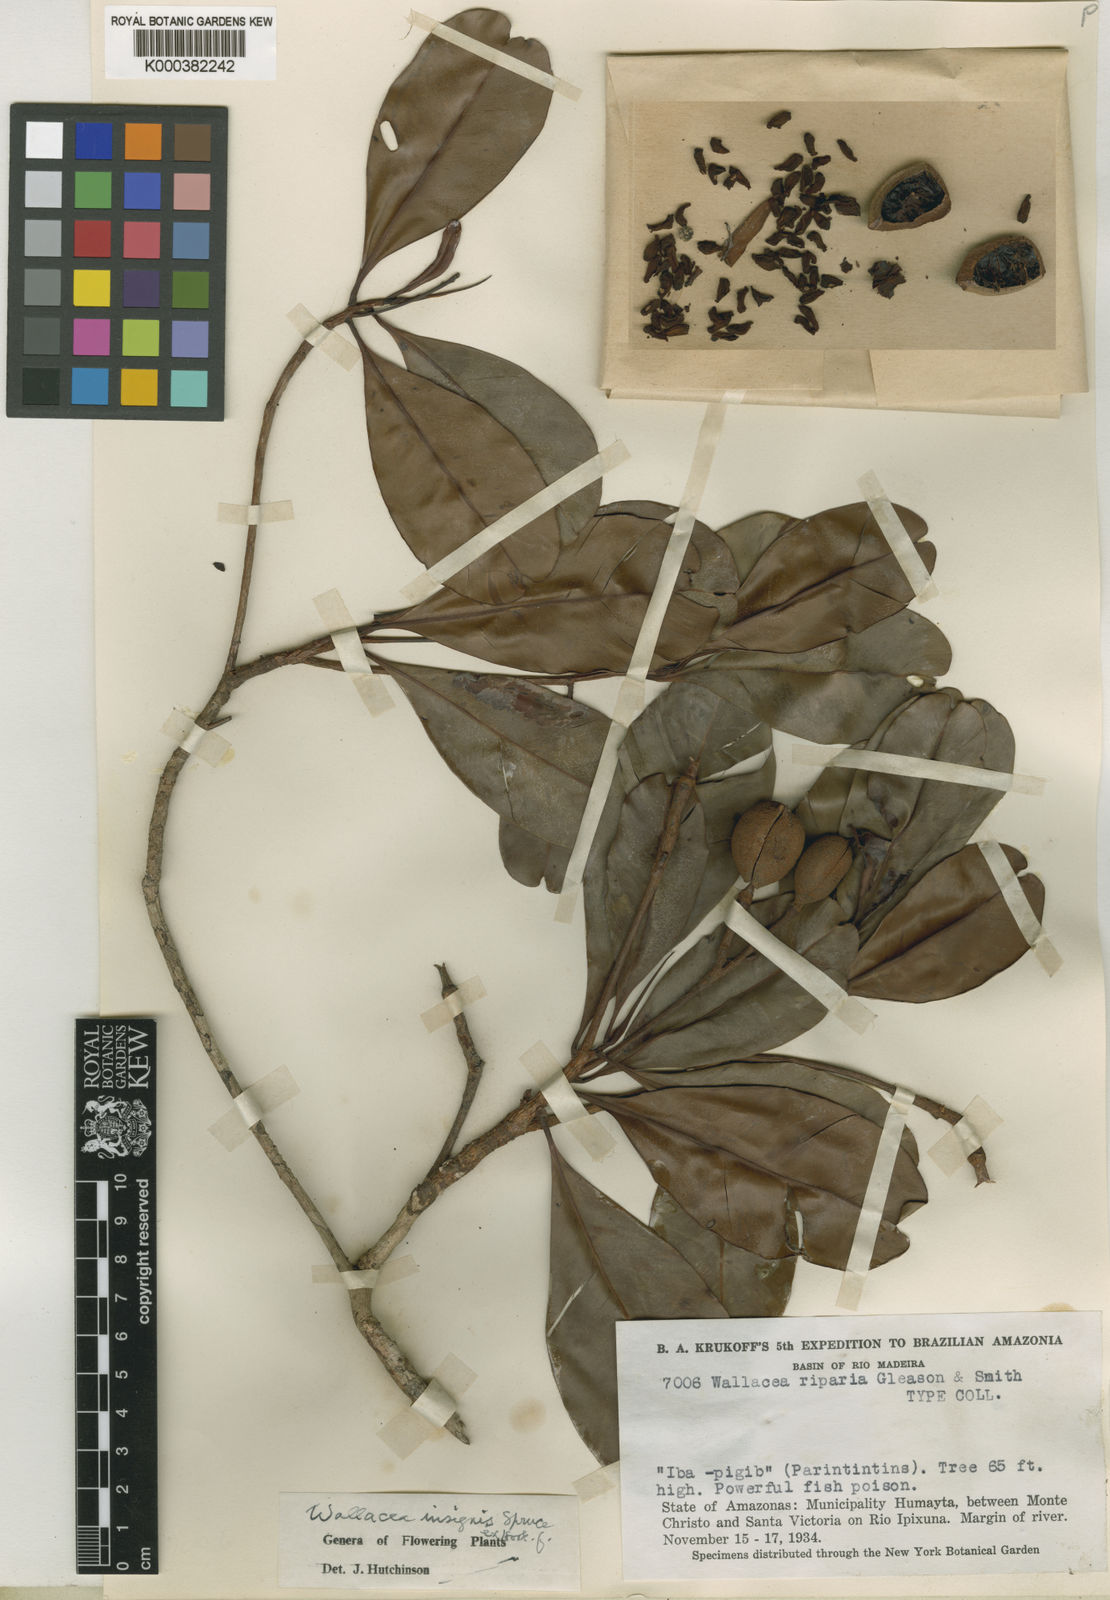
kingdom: Plantae
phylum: Tracheophyta
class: Magnoliopsida
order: Malpighiales
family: Ochnaceae
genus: Wallacea
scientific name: Wallacea insignis
